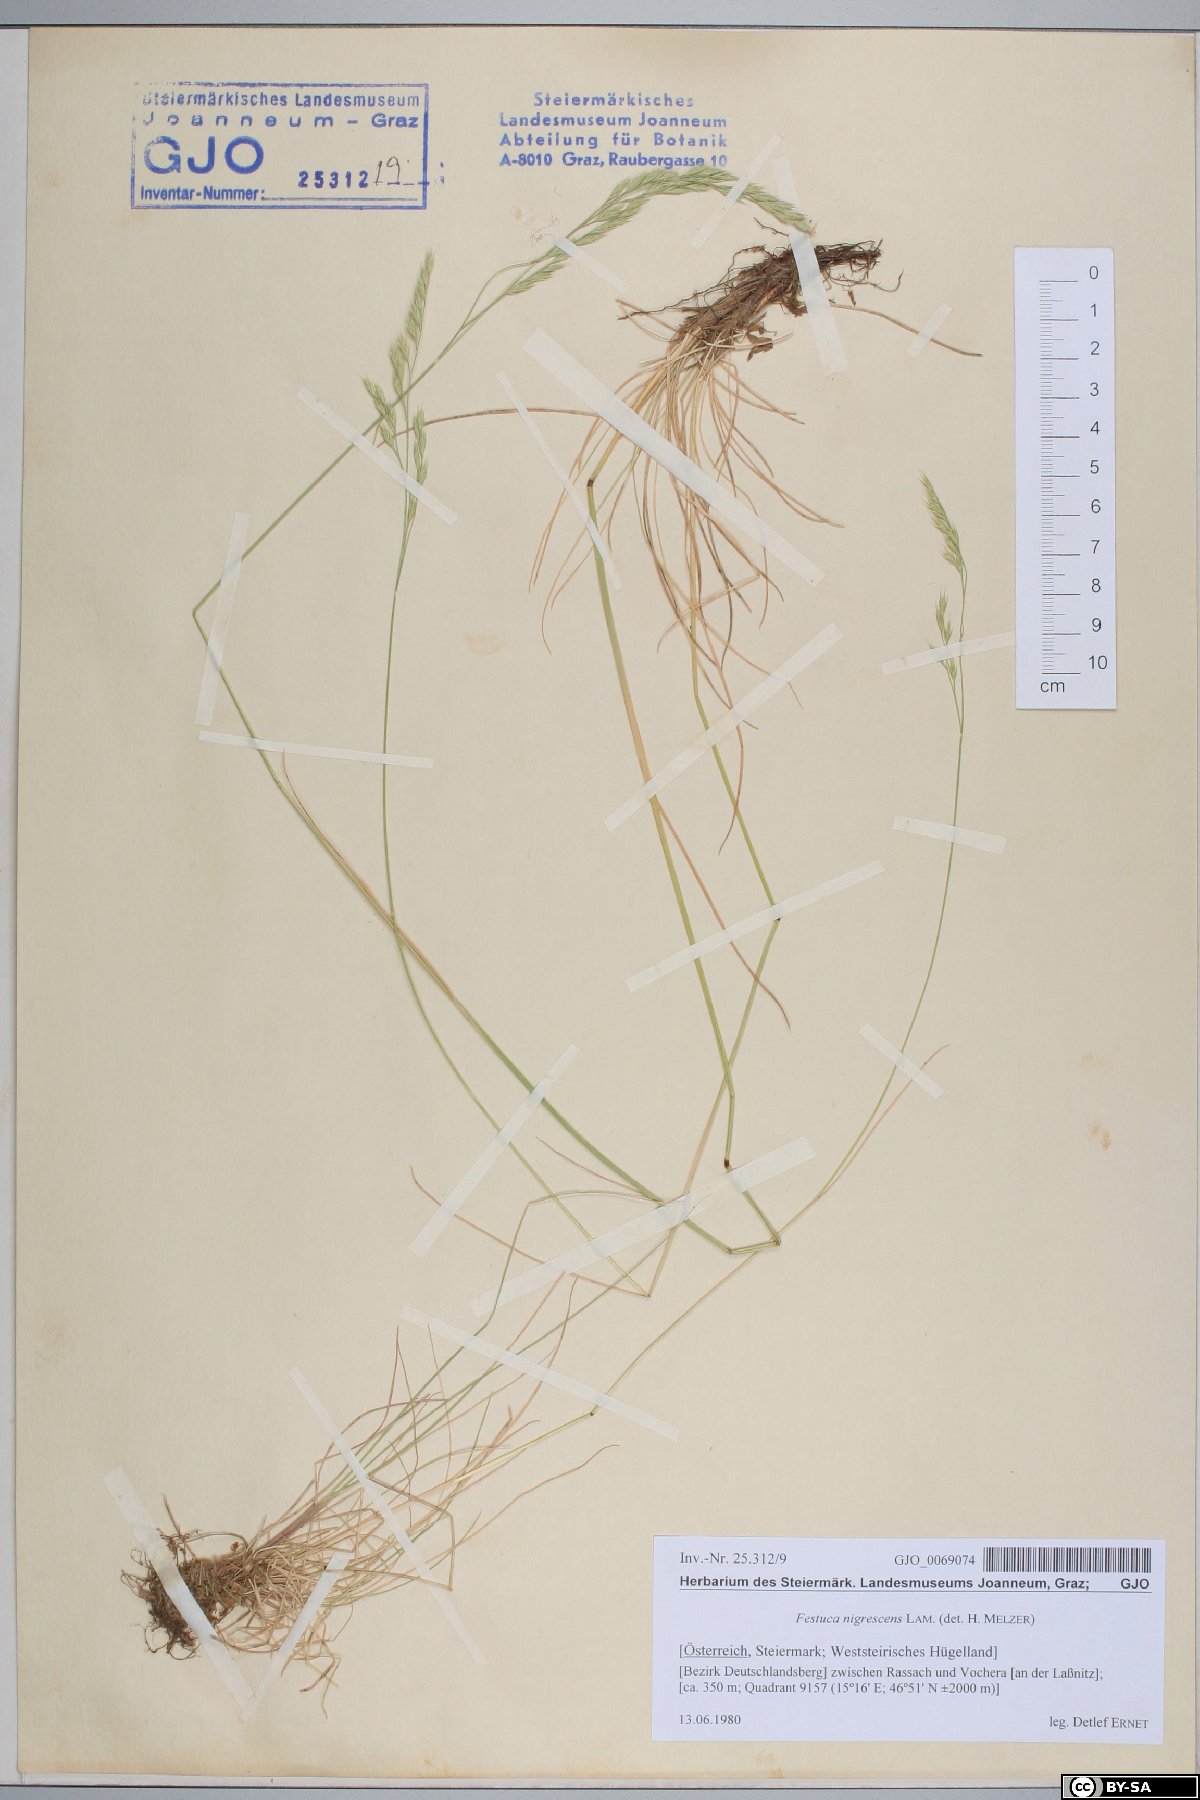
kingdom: Plantae
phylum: Tracheophyta
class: Liliopsida
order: Poales
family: Poaceae
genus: Festuca
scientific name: Festuca nigrescens
